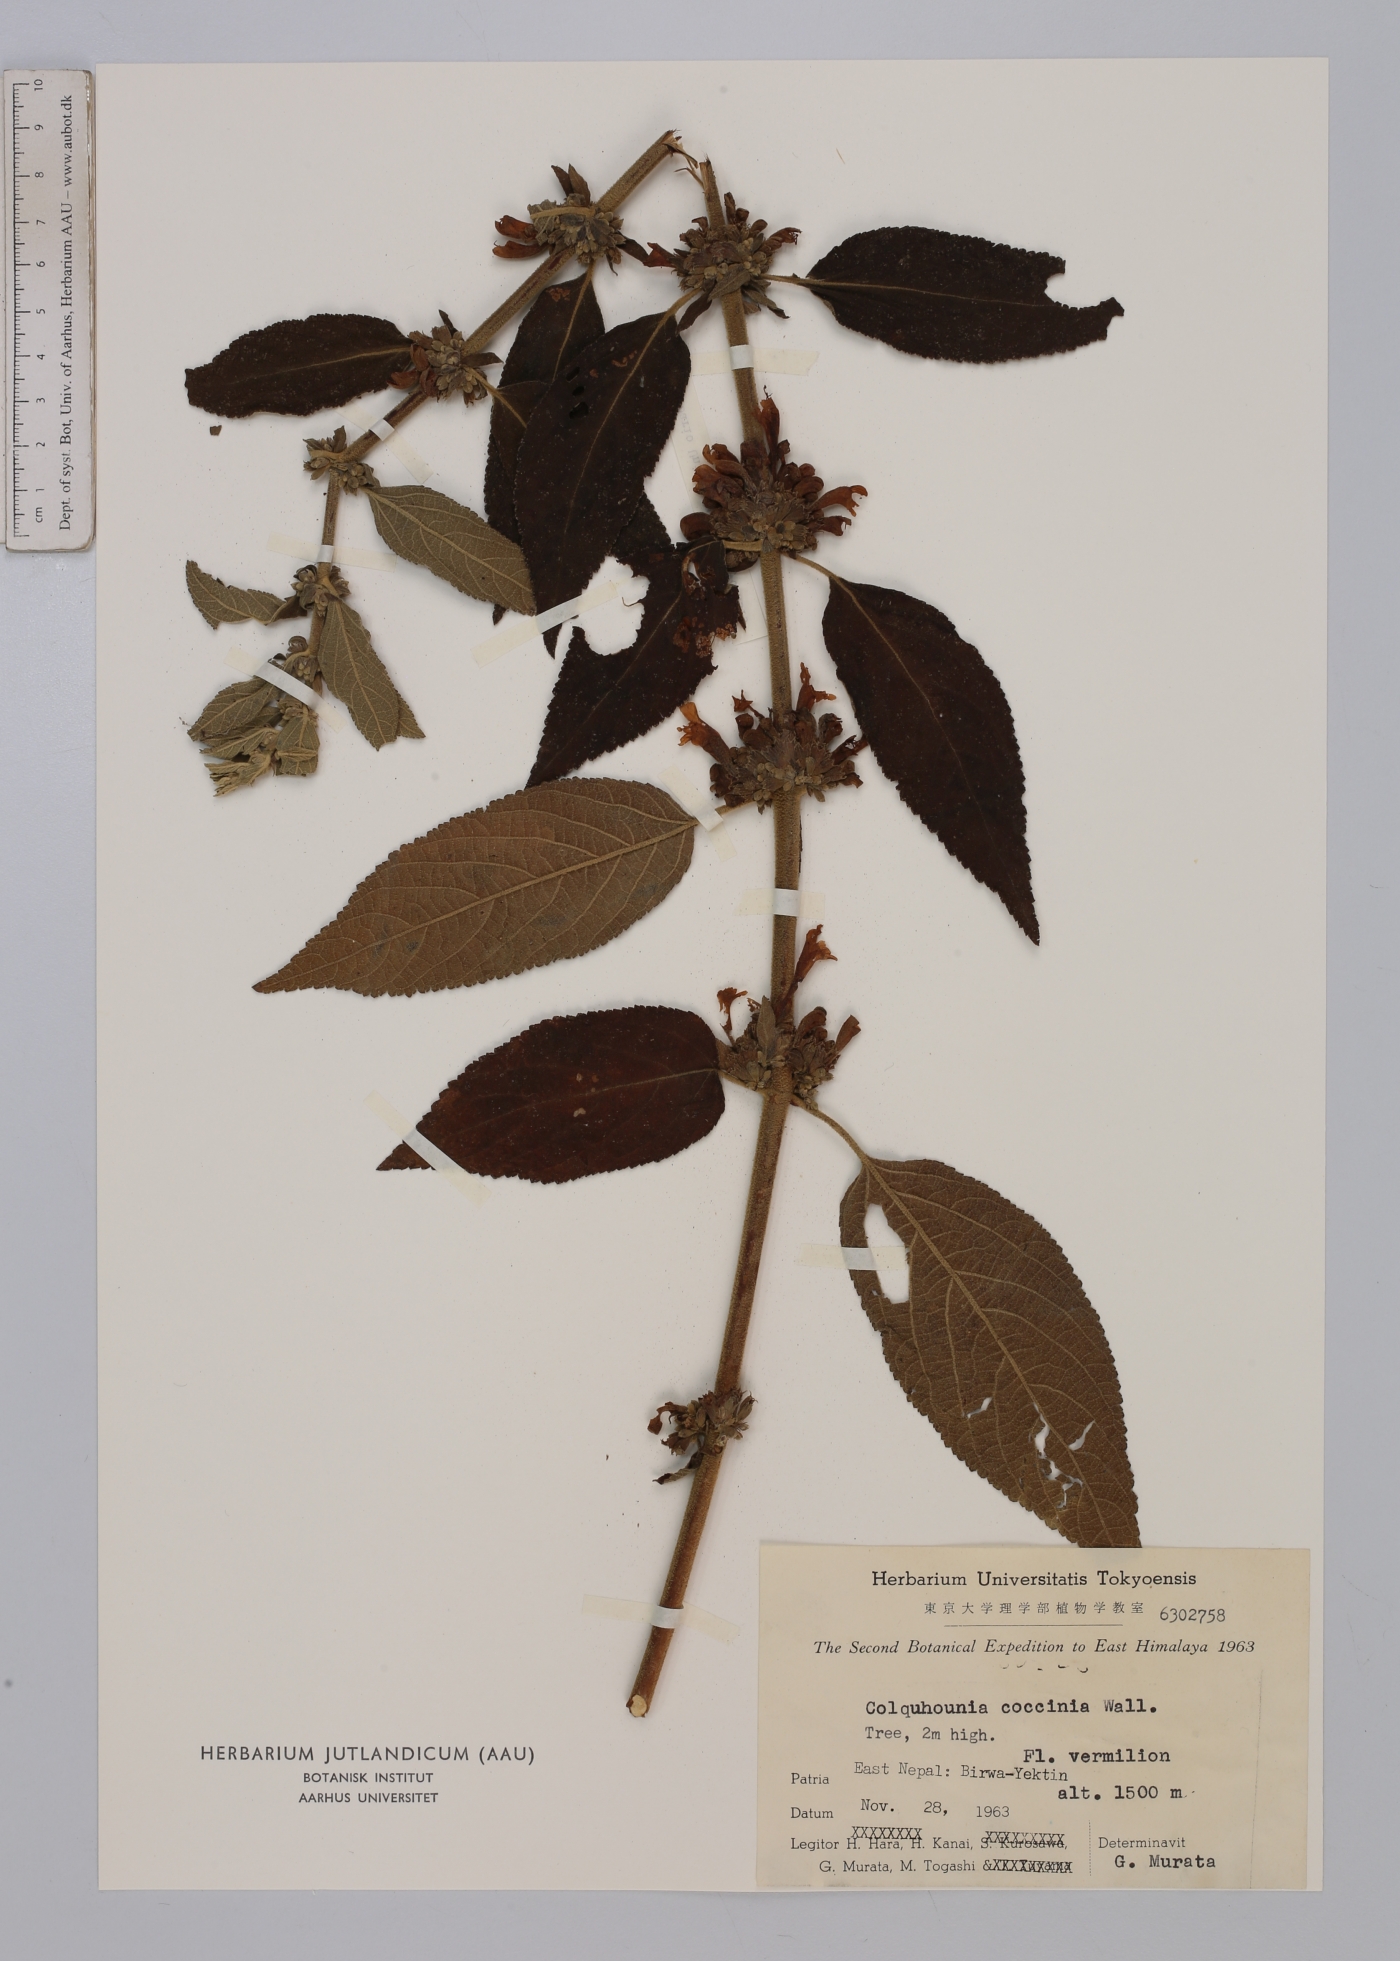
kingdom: Plantae
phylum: Tracheophyta
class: Magnoliopsida
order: Lamiales
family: Lamiaceae
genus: Colquhounia
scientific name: Colquhounia coccinea
